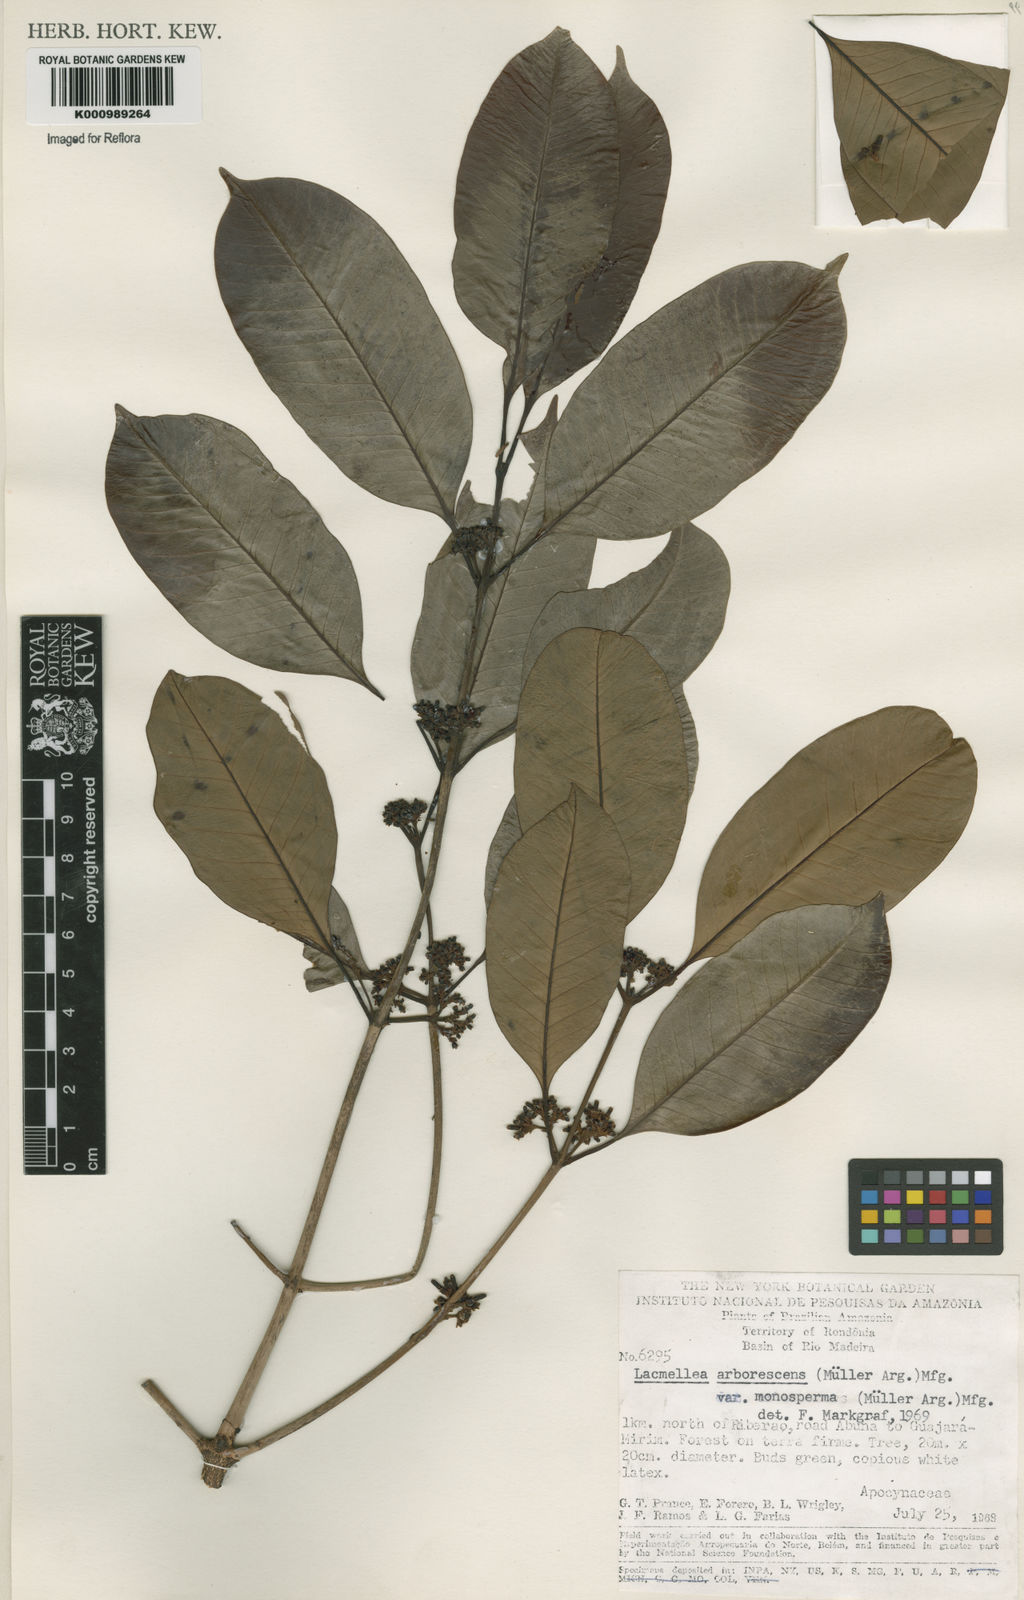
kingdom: Plantae
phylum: Tracheophyta
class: Magnoliopsida
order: Gentianales
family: Apocynaceae
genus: Lacmellea
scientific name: Lacmellea
